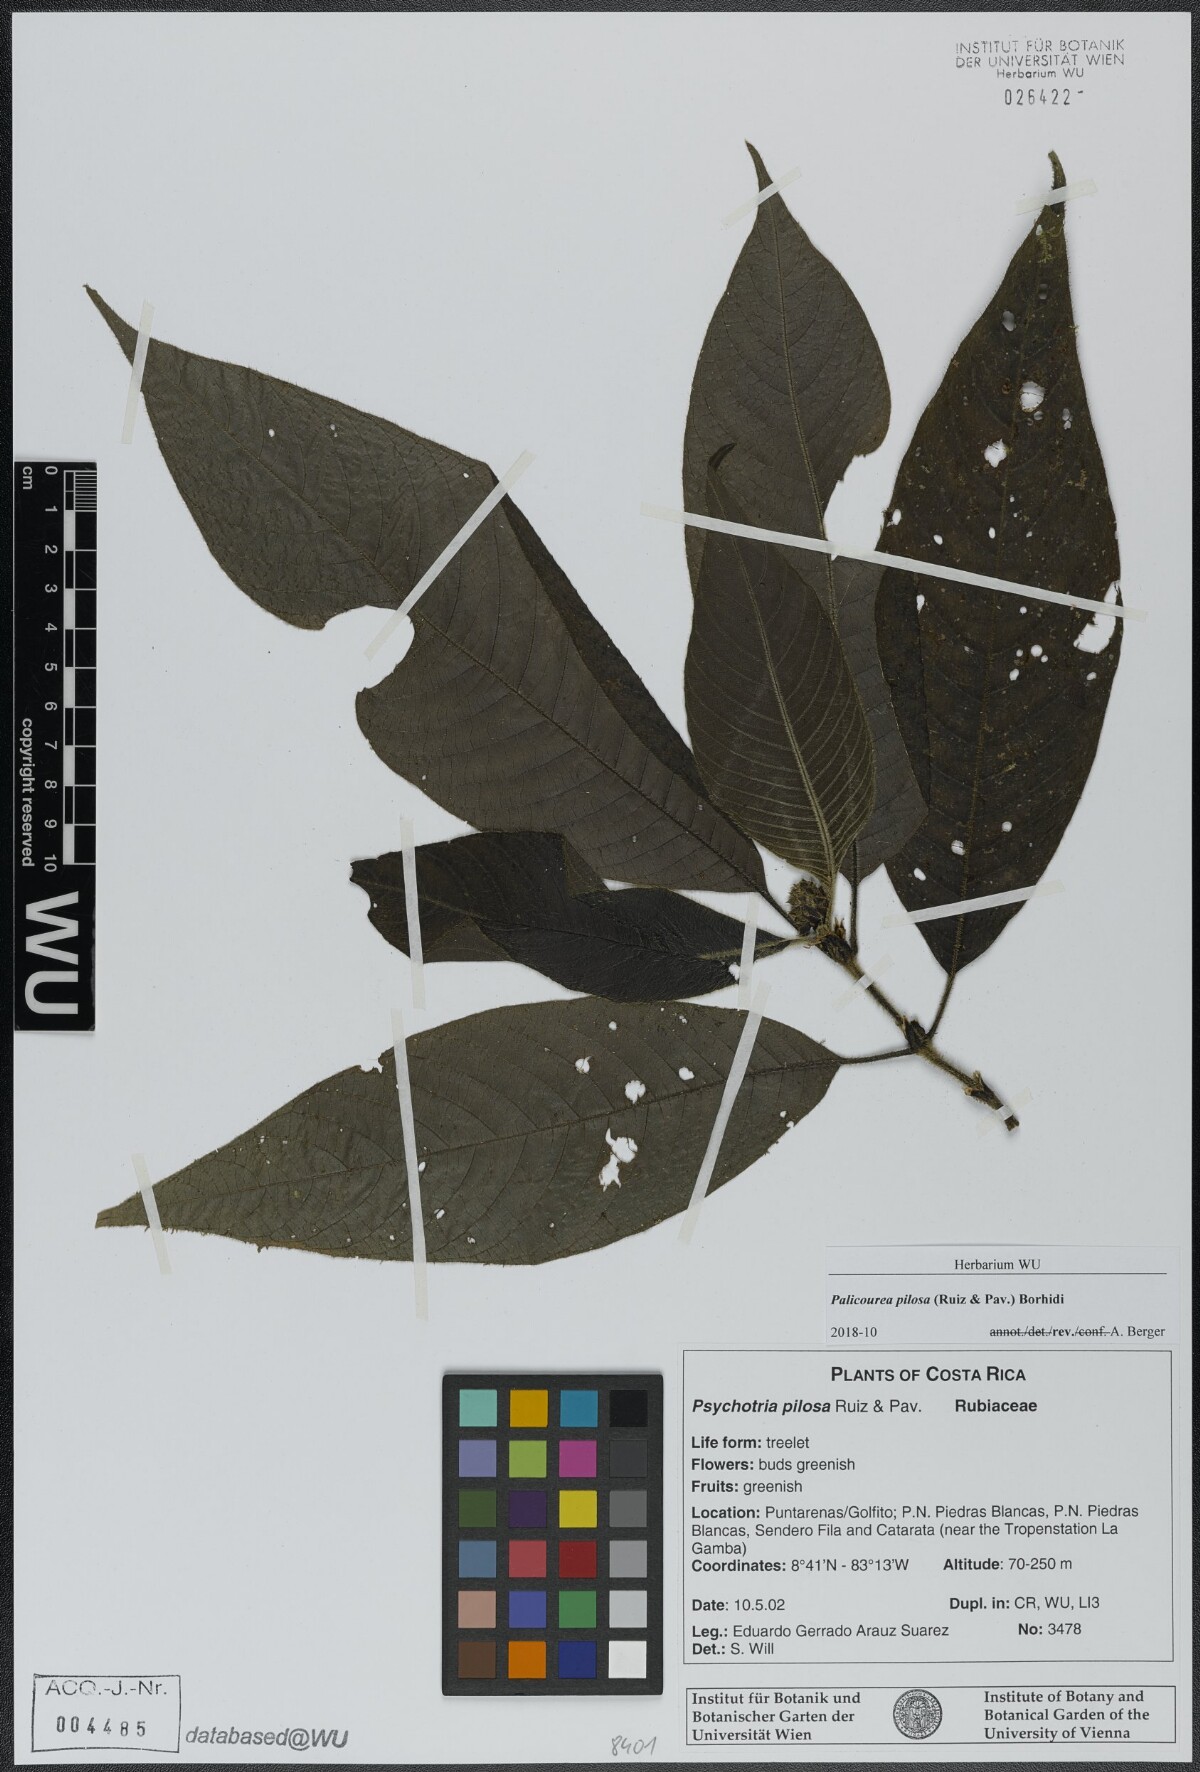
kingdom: Plantae
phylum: Tracheophyta
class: Magnoliopsida
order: Gentianales
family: Rubiaceae
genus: Palicourea
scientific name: Palicourea pilosa
